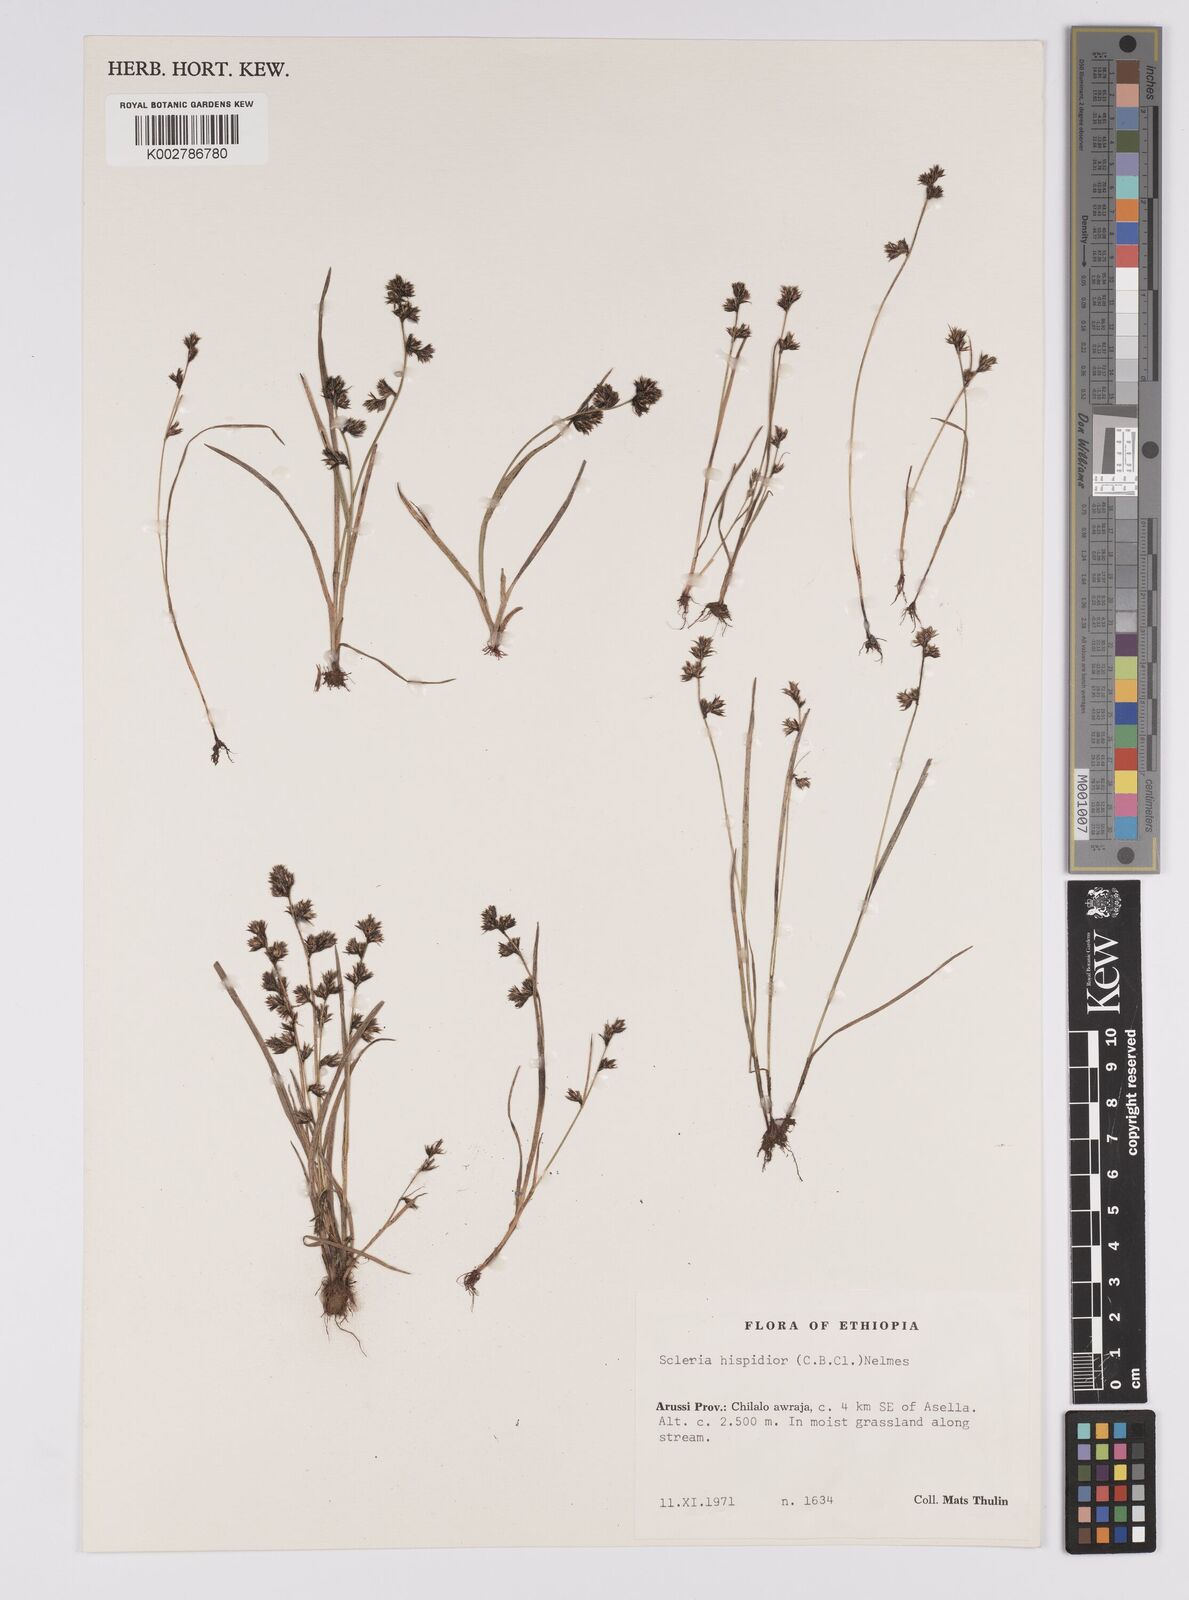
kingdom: Plantae
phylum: Tracheophyta
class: Liliopsida
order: Poales
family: Cyperaceae
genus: Scleria
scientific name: Scleria hispidula
